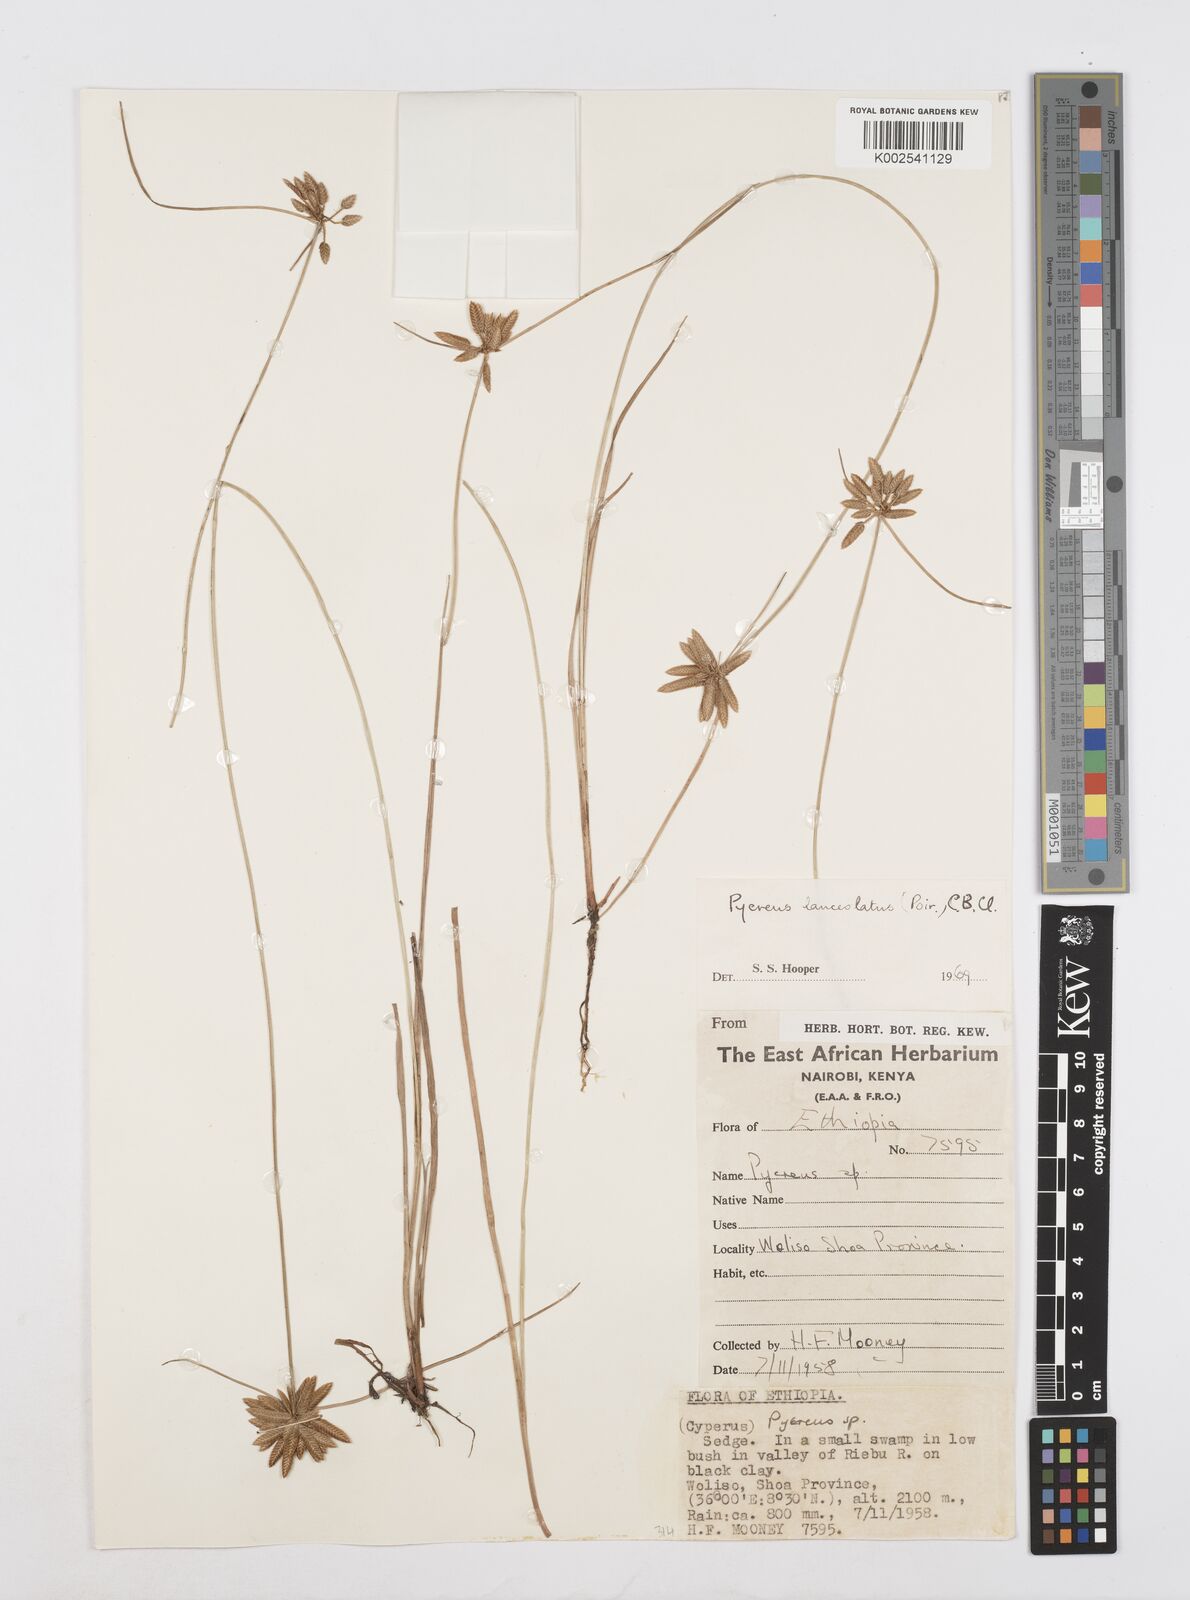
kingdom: Plantae
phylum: Tracheophyta
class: Liliopsida
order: Poales
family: Cyperaceae
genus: Cyperus
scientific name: Cyperus lanceolatus
